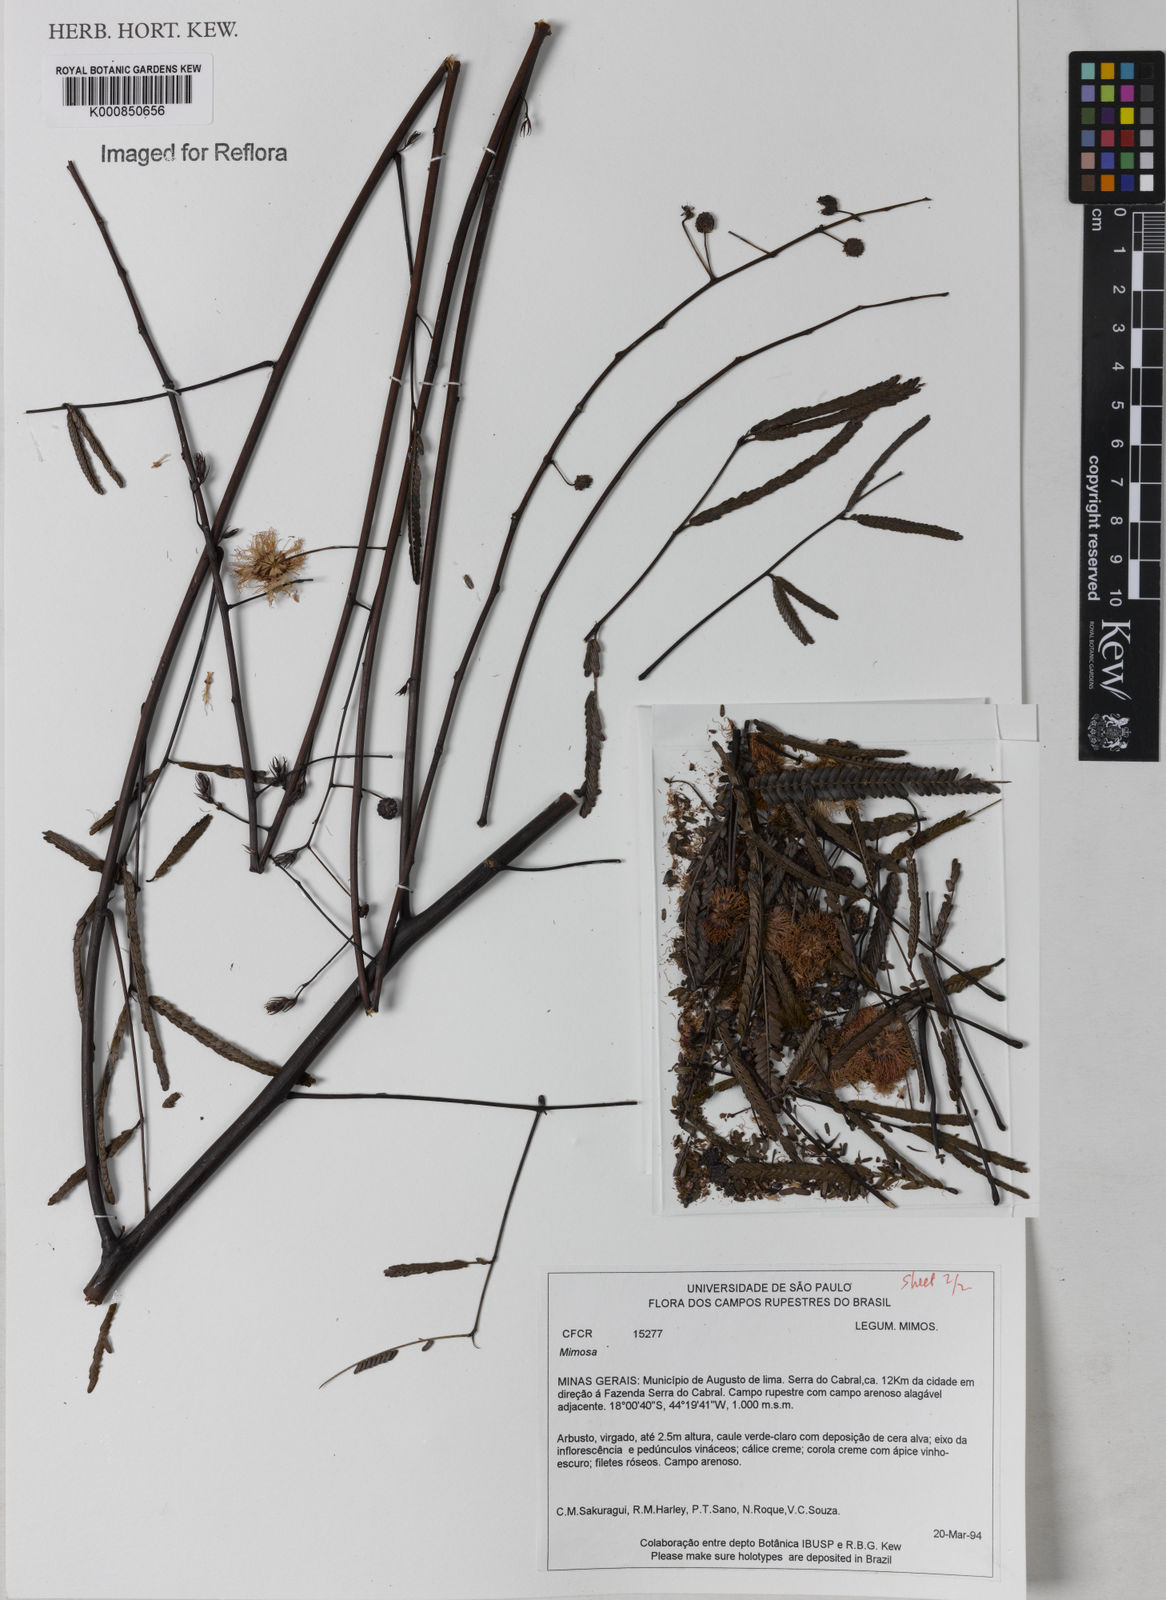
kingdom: Plantae
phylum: Tracheophyta
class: Magnoliopsida
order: Fabales
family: Fabaceae
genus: Mimosa
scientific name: Mimosa maguirei
